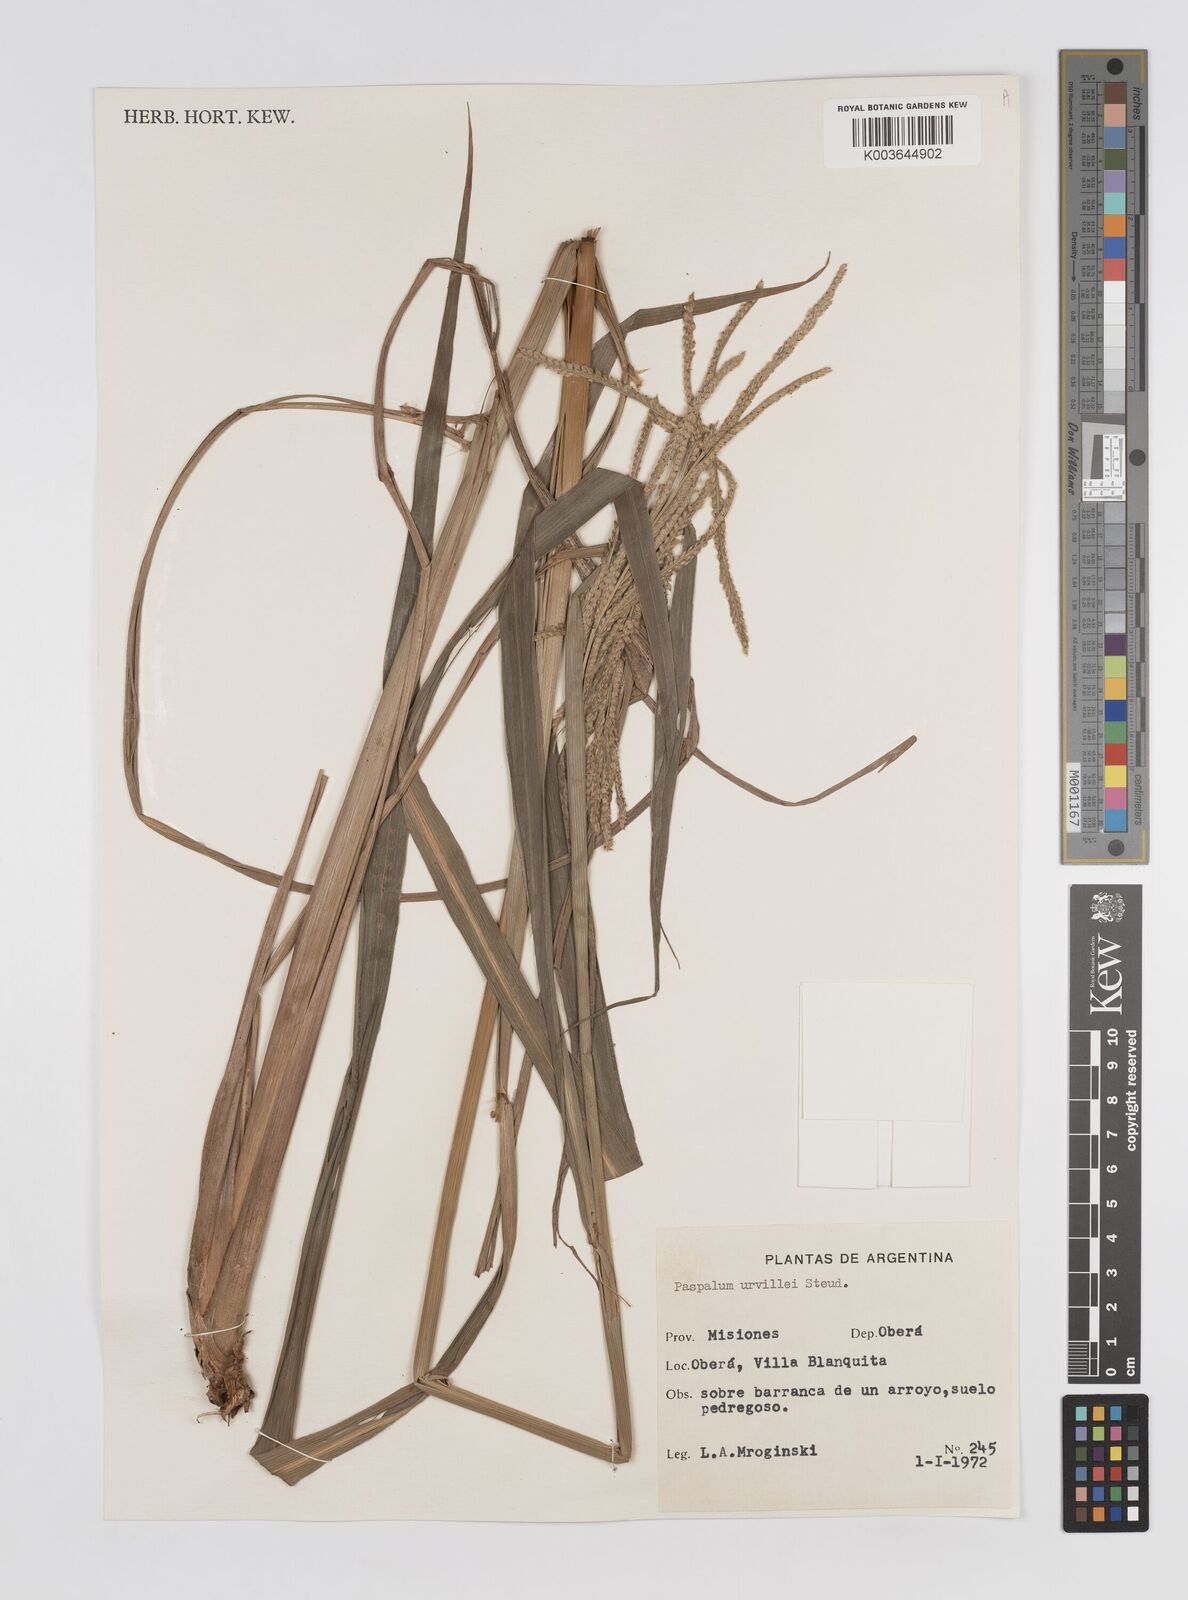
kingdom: Plantae
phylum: Tracheophyta
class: Liliopsida
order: Poales
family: Poaceae
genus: Paspalum
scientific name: Paspalum urvillei
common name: Vasey's grass
